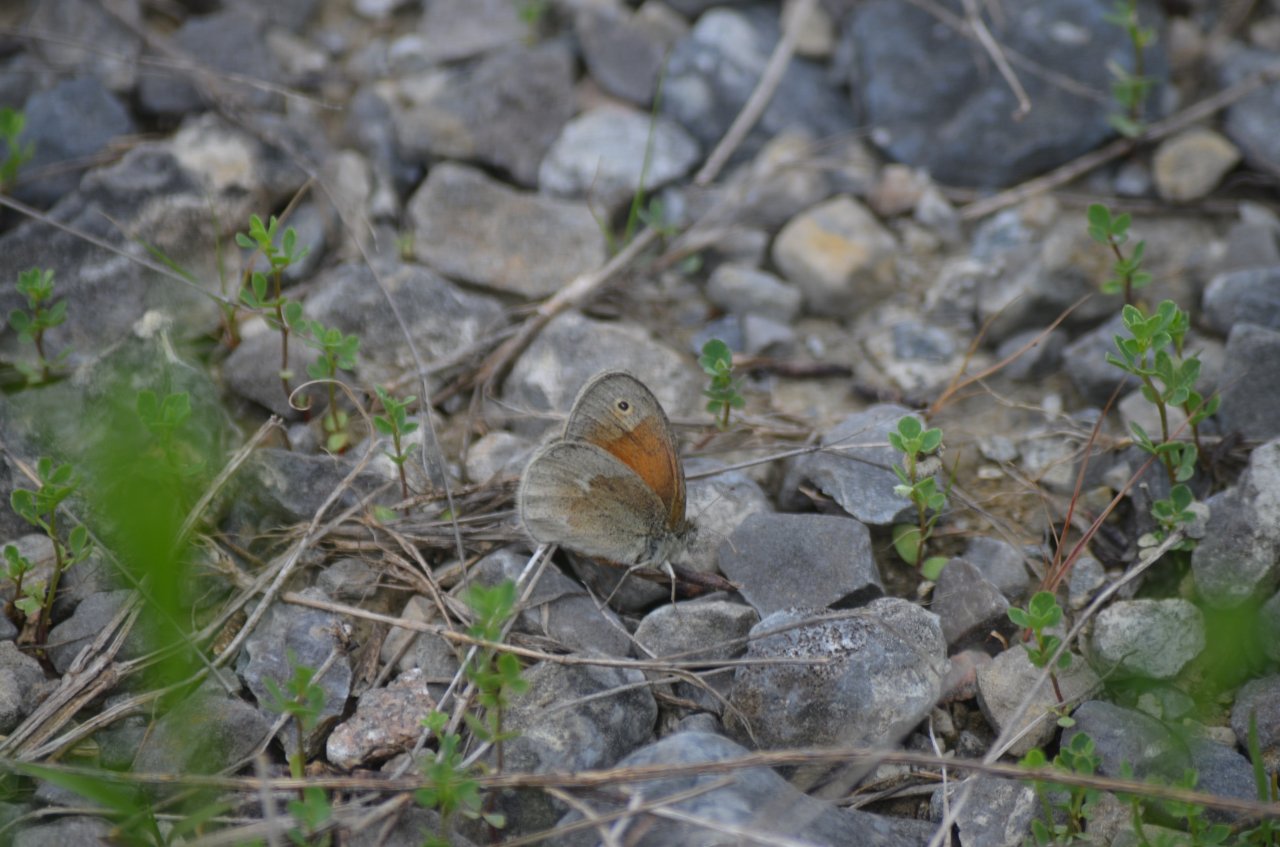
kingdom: Animalia
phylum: Arthropoda
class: Insecta
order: Lepidoptera
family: Nymphalidae
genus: Coenonympha
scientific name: Coenonympha tullia
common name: Large Heath
